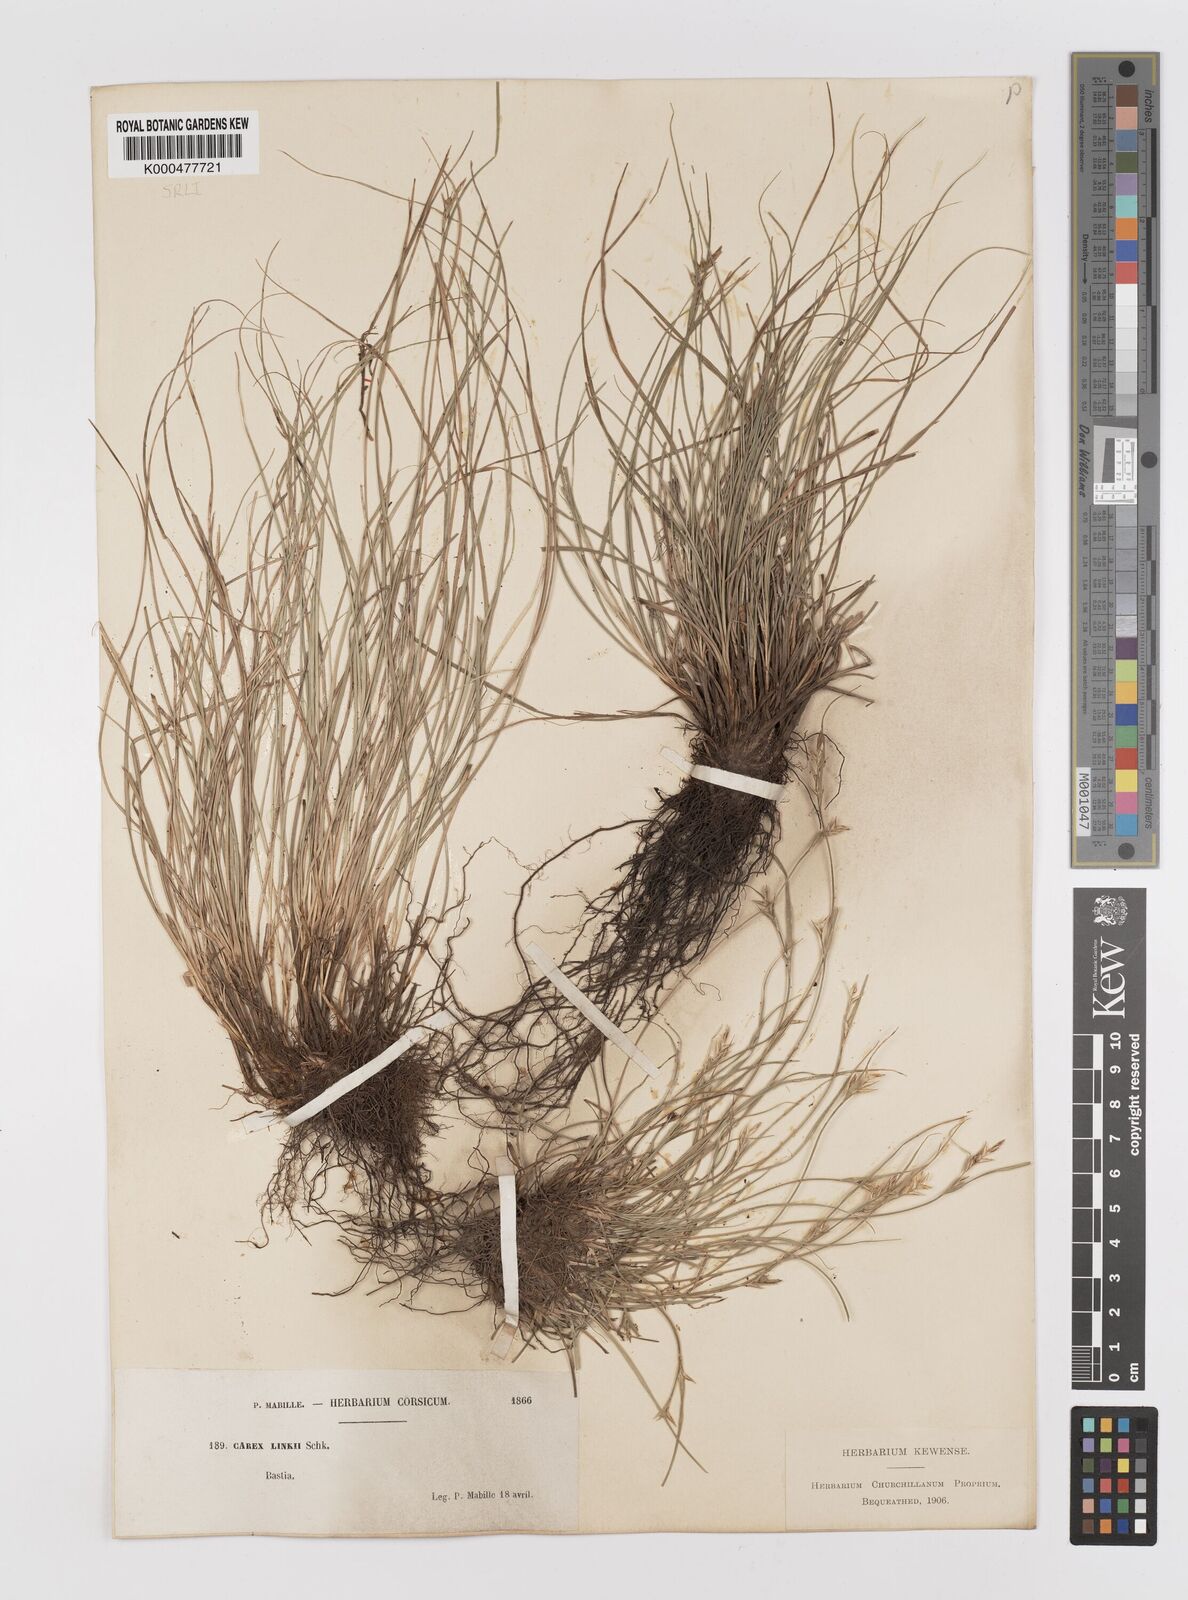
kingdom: Plantae
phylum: Tracheophyta
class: Liliopsida
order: Poales
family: Cyperaceae
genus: Carex
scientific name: Carex distachya
